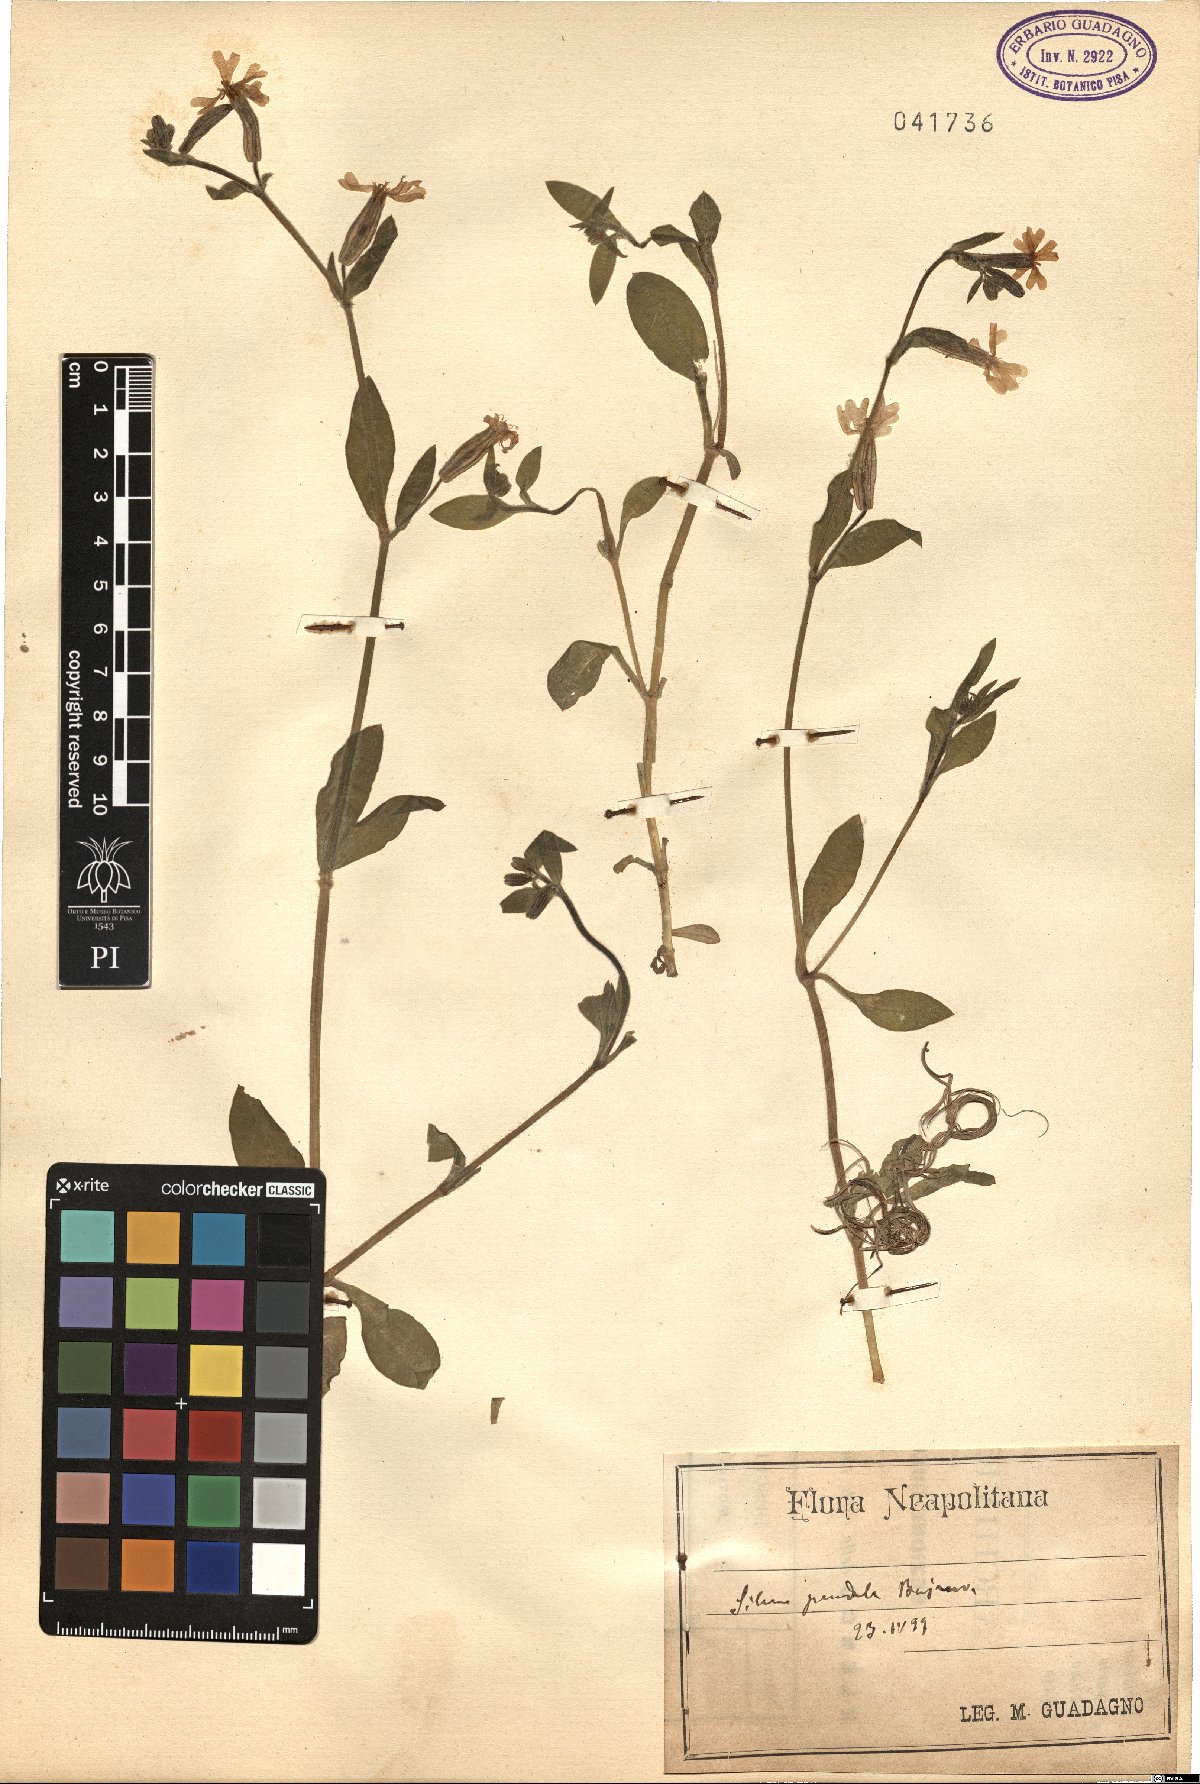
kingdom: Plantae
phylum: Tracheophyta
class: Magnoliopsida
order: Caryophyllales
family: Caryophyllaceae
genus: Silene
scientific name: Silene pendula
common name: Nodding catchfly
